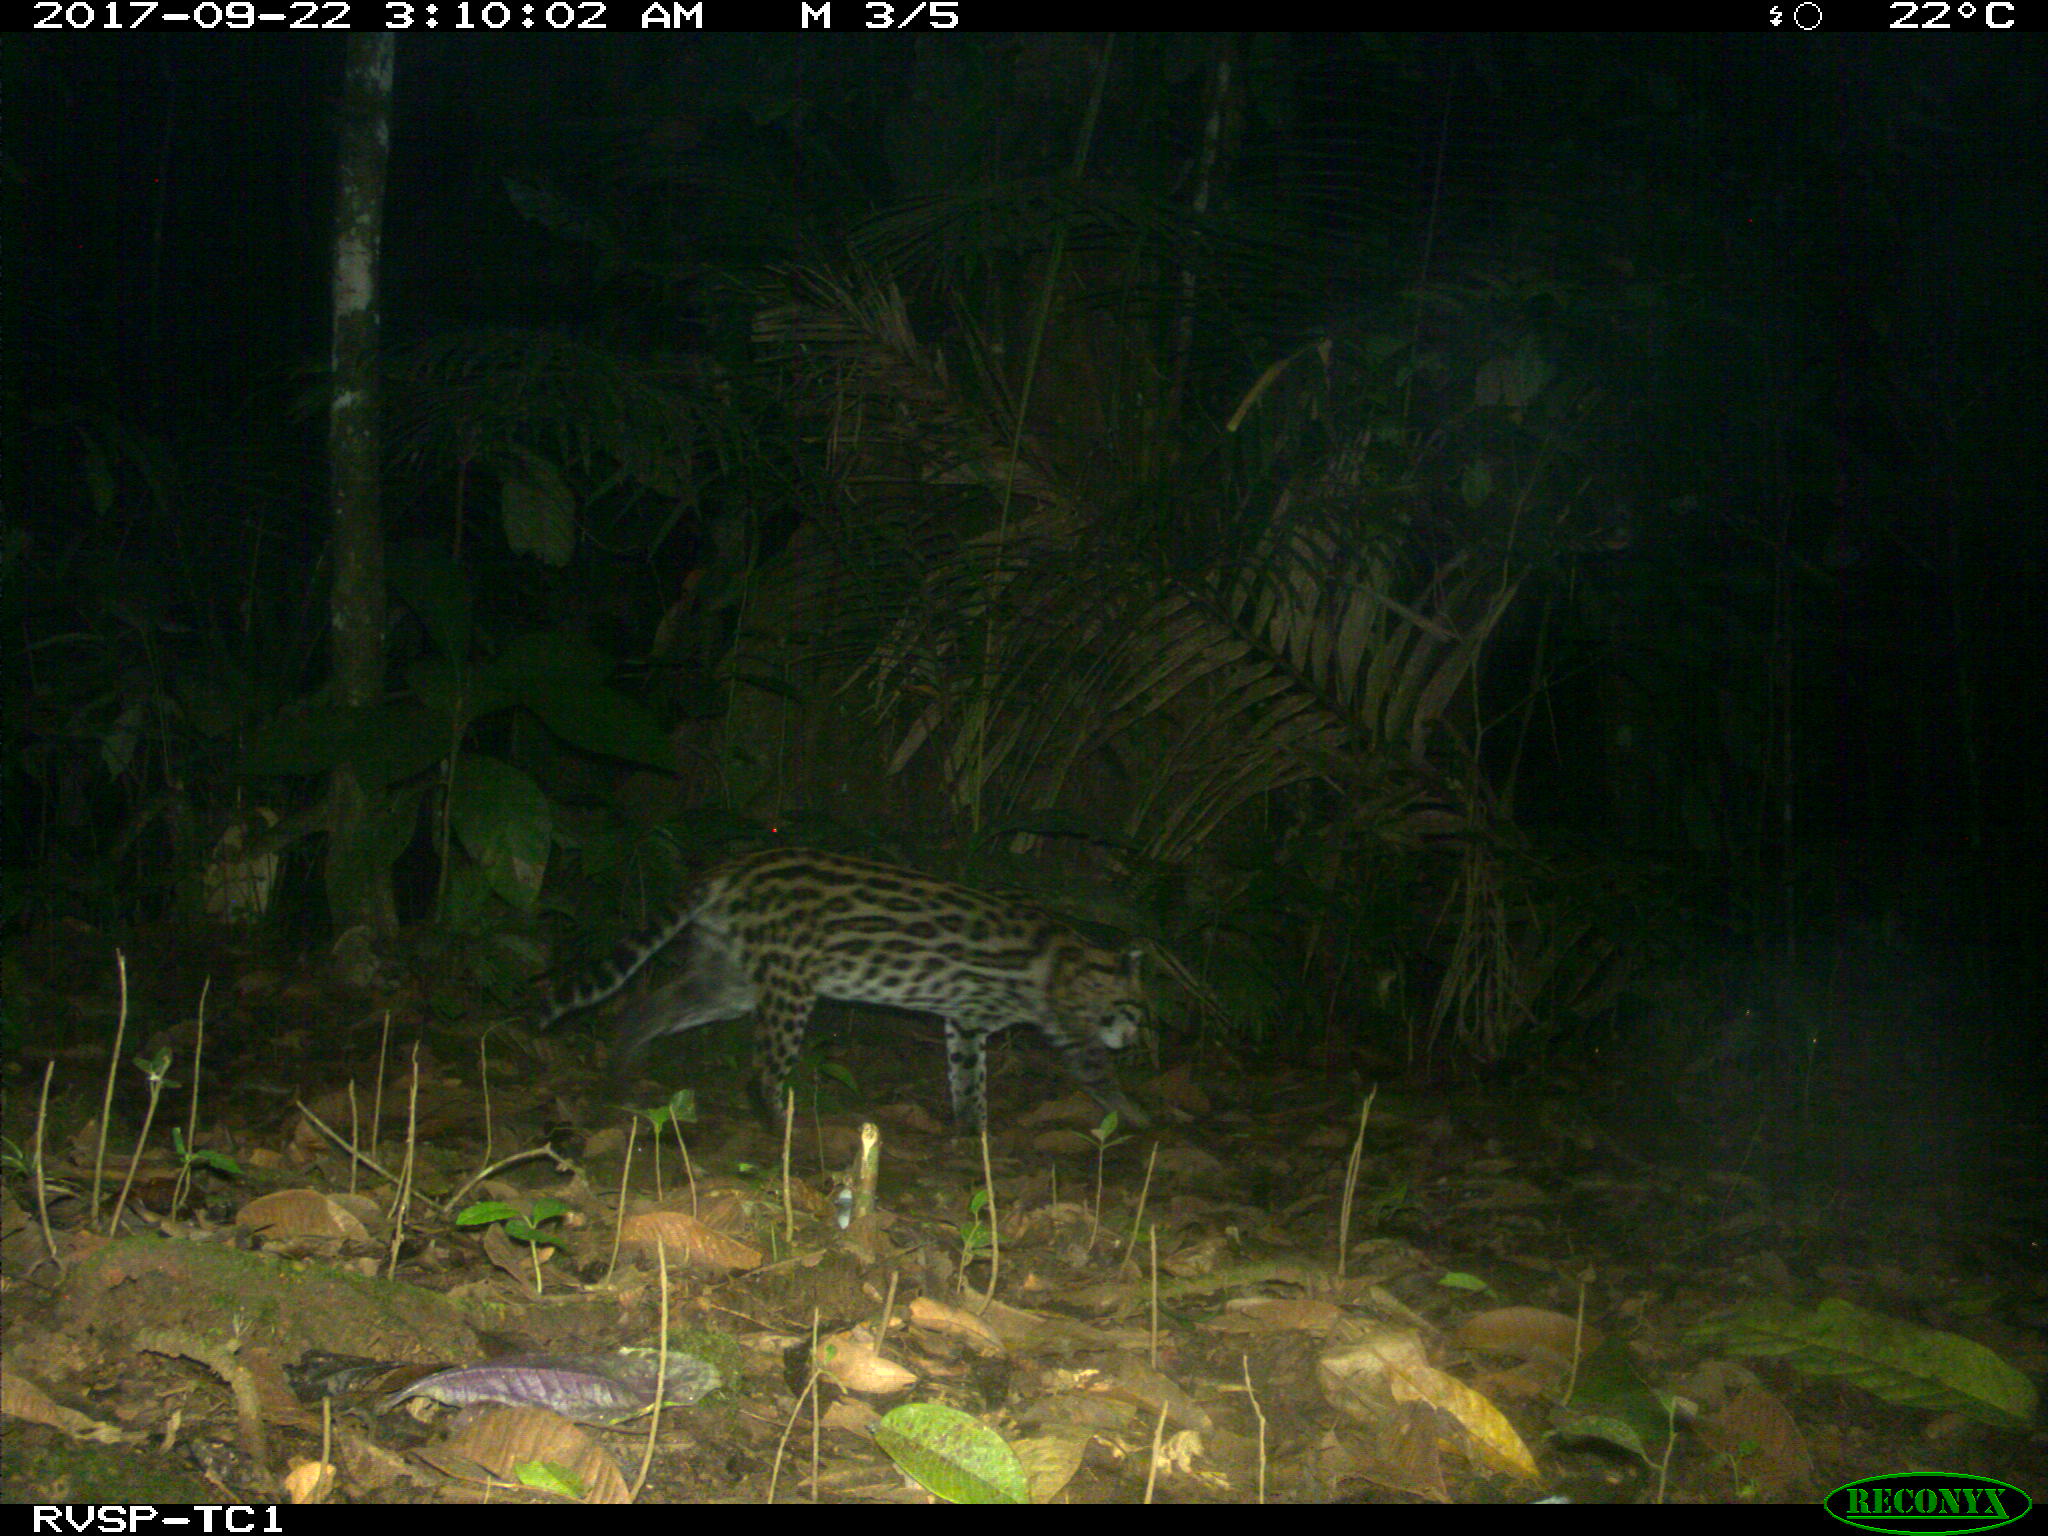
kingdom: Animalia
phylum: Chordata
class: Mammalia
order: Carnivora
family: Felidae
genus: Leopardus
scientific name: Leopardus pardalis
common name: Ocelot
